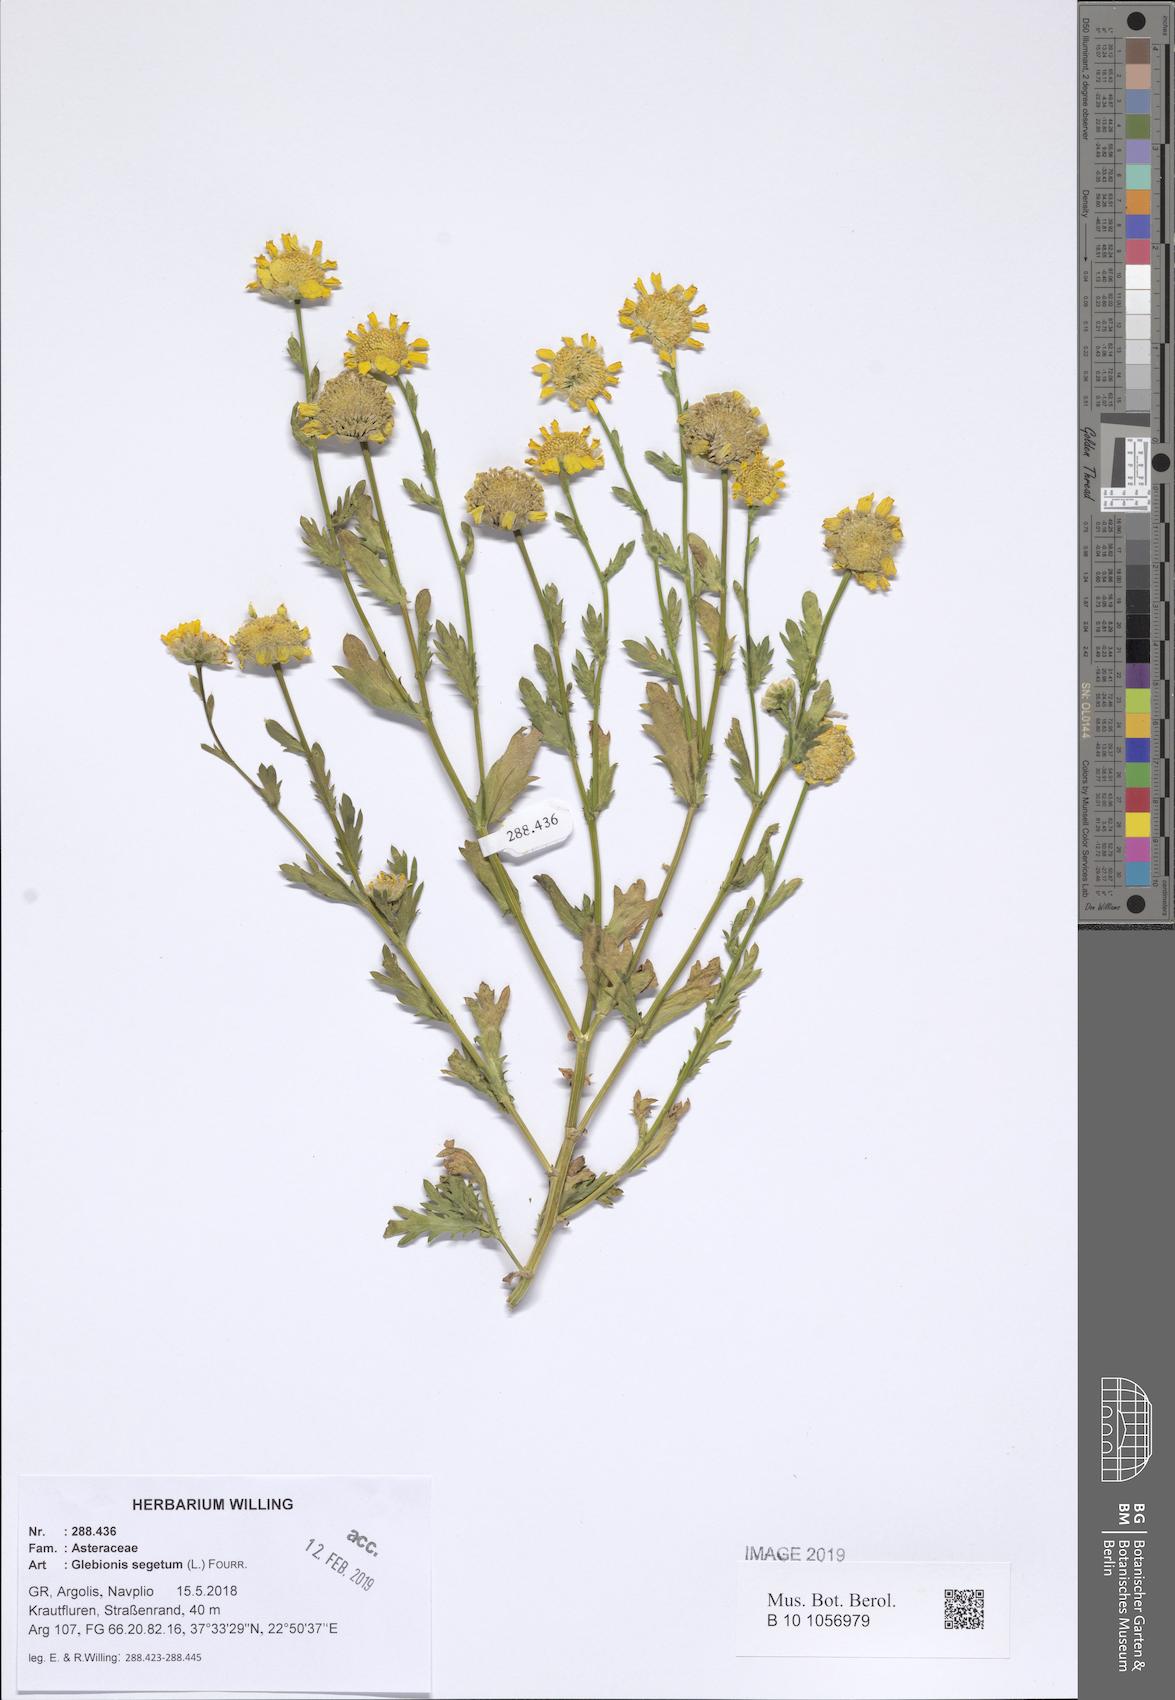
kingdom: Plantae
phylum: Tracheophyta
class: Magnoliopsida
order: Asterales
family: Asteraceae
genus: Glebionis
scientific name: Glebionis segetum
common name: Corndaisy
